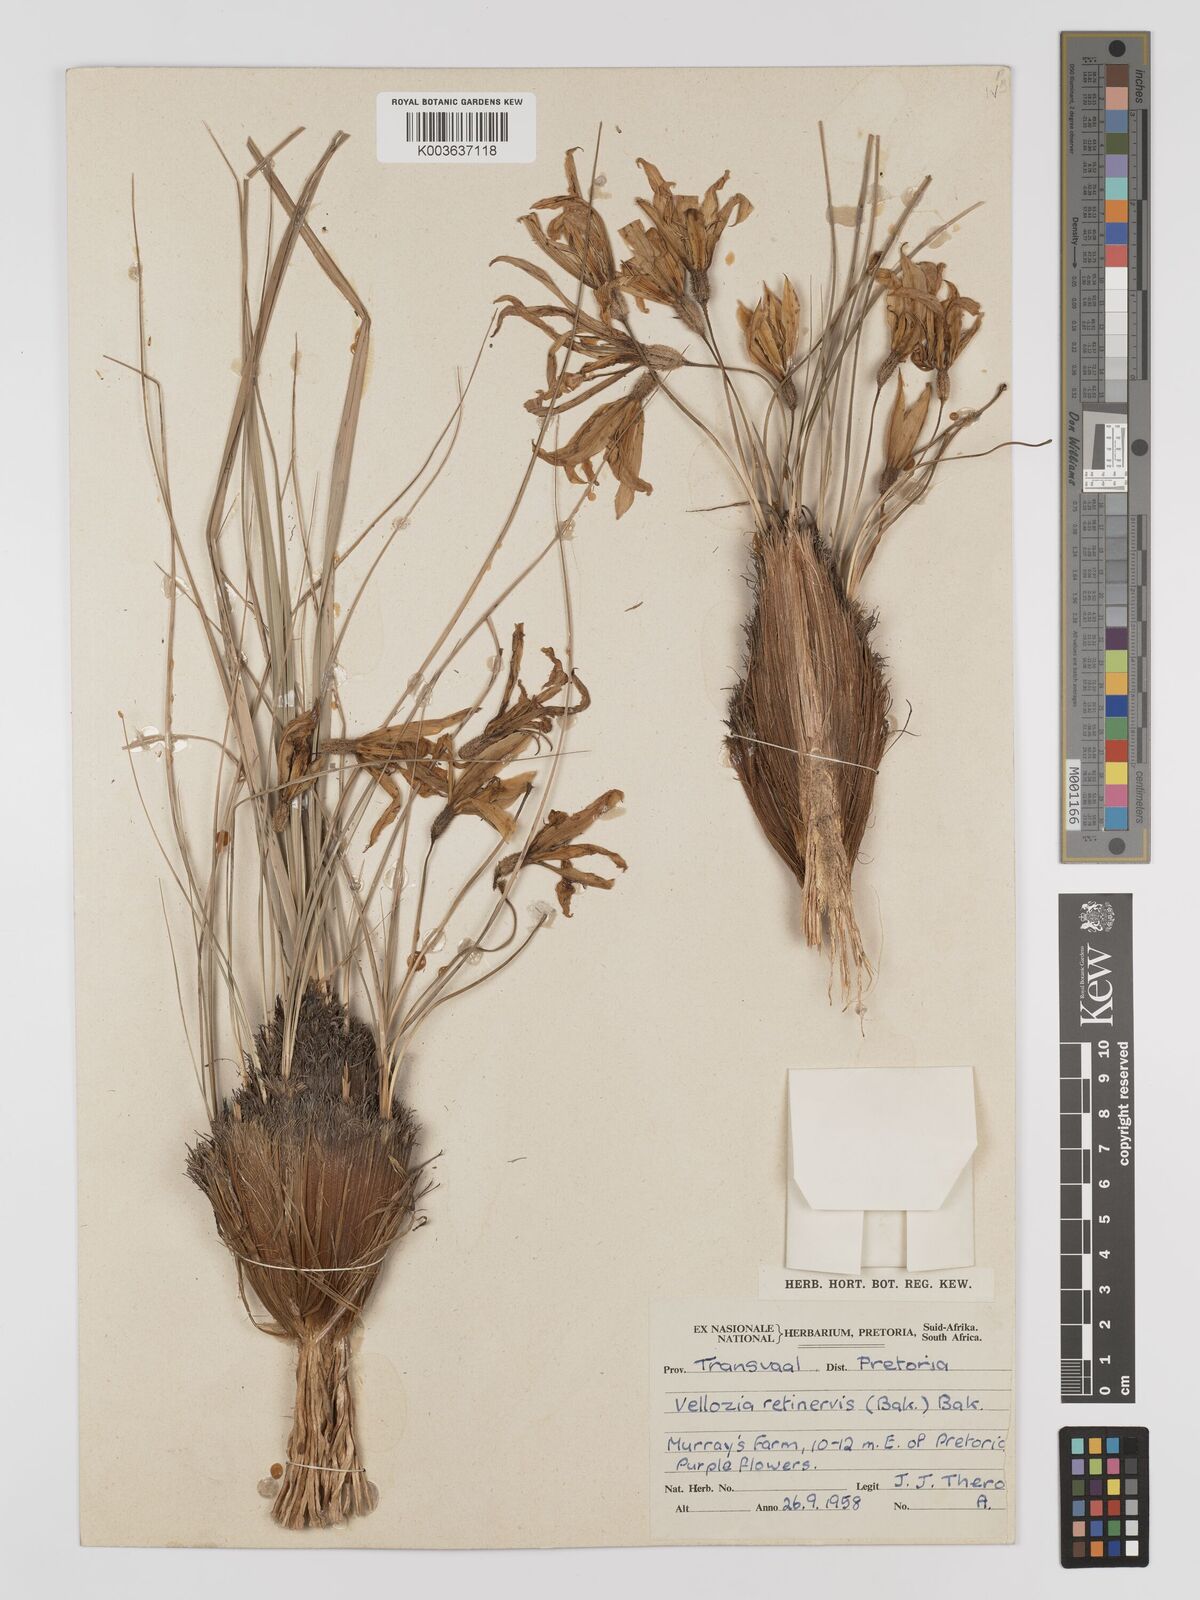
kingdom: Plantae
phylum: Tracheophyta
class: Liliopsida
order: Pandanales
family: Velloziaceae
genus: Xerophyta
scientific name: Xerophyta retinervis
